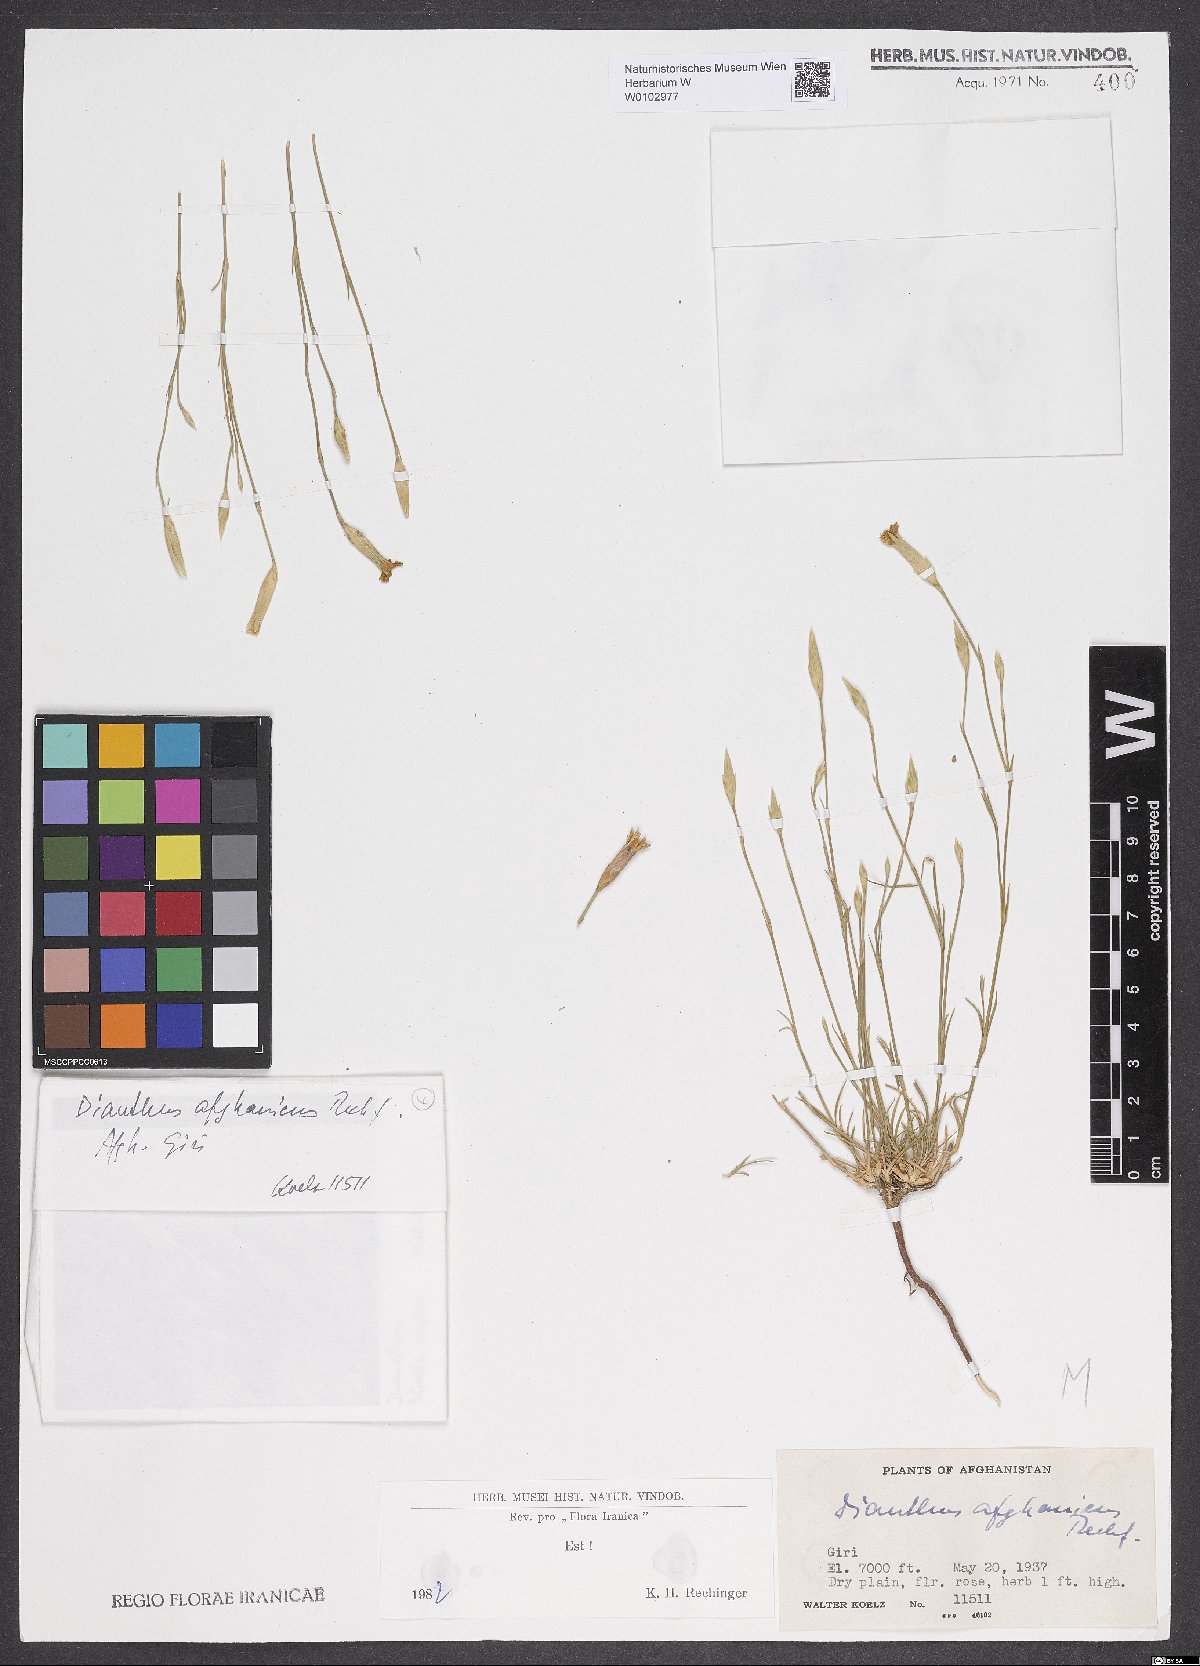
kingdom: Plantae
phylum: Tracheophyta
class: Magnoliopsida
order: Caryophyllales
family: Caryophyllaceae
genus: Dianthus
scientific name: Dianthus afghanicus
